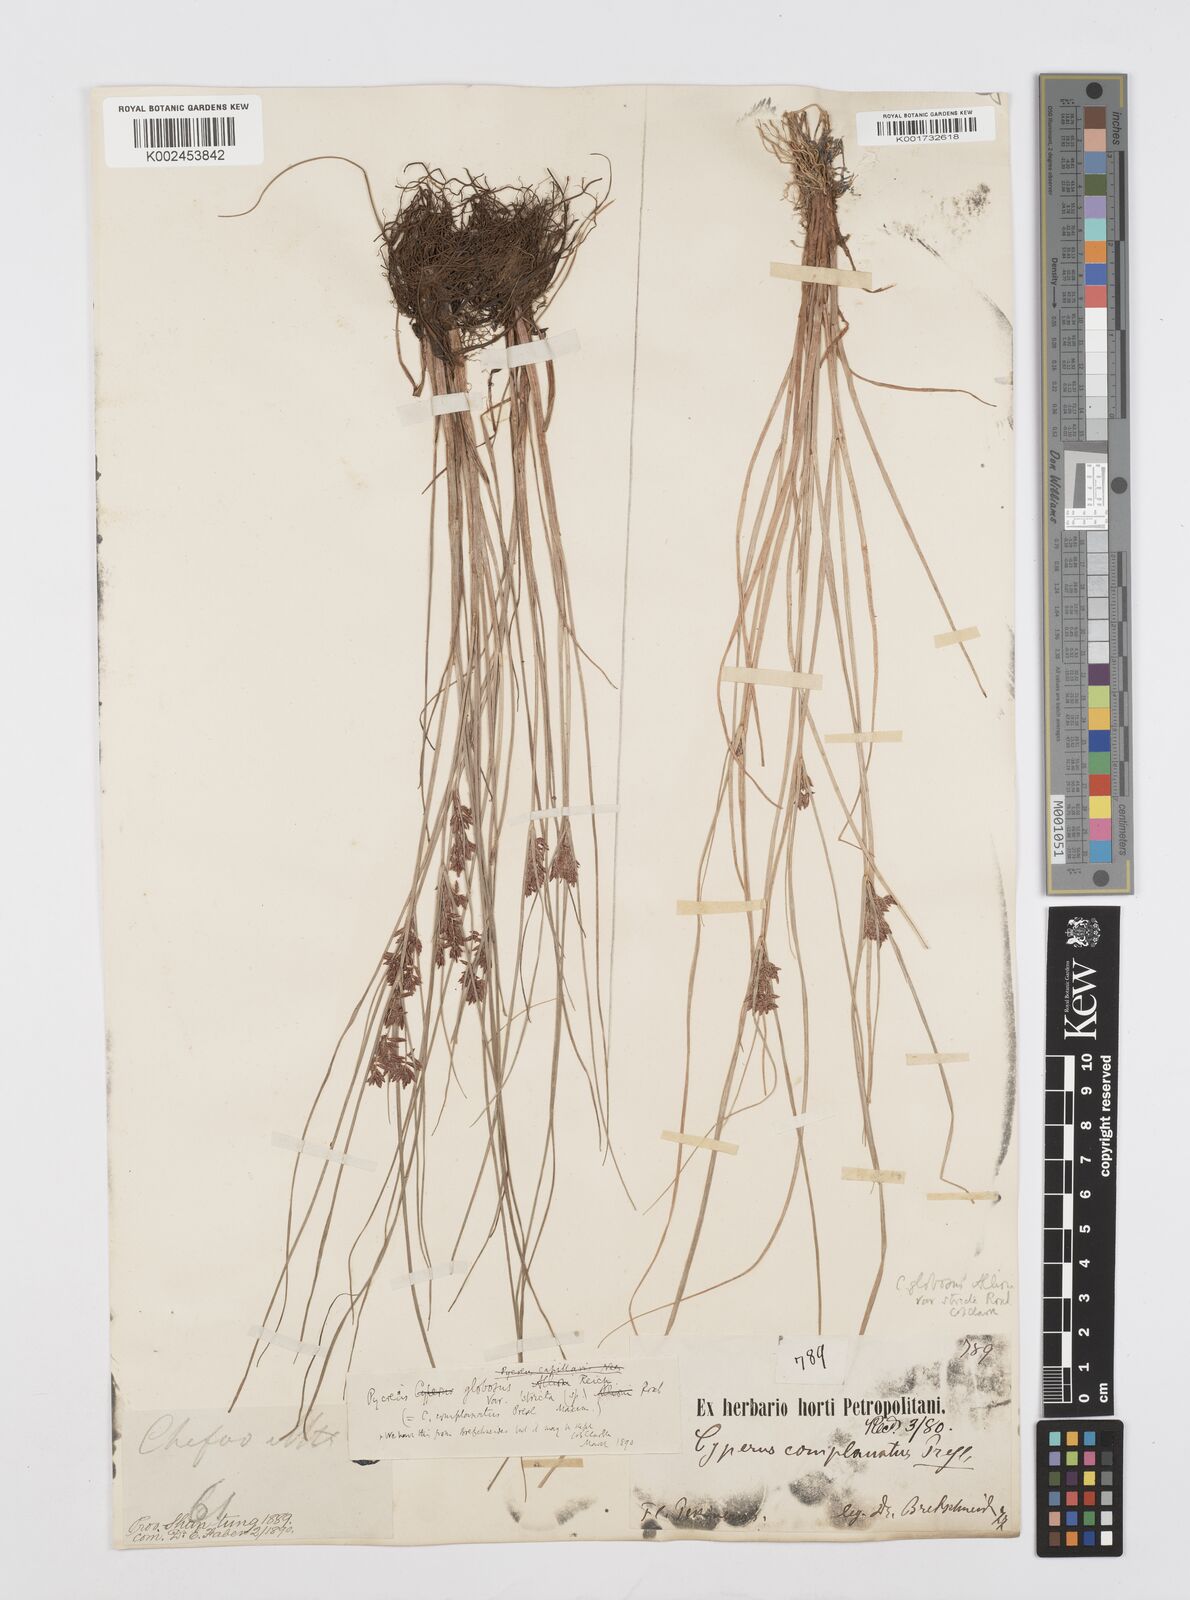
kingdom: Plantae
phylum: Tracheophyta
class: Liliopsida
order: Poales
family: Cyperaceae
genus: Cyperus
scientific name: Cyperus flavidus
